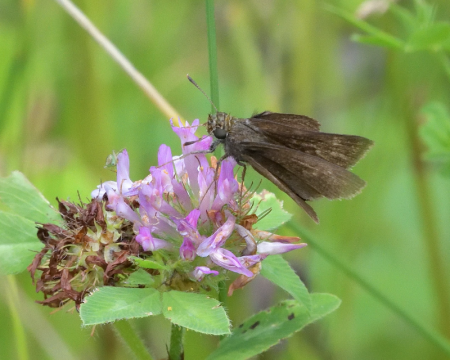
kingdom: Animalia
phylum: Arthropoda
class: Insecta
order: Lepidoptera
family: Hesperiidae
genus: Euphyes
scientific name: Euphyes vestris
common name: Dun Skipper
